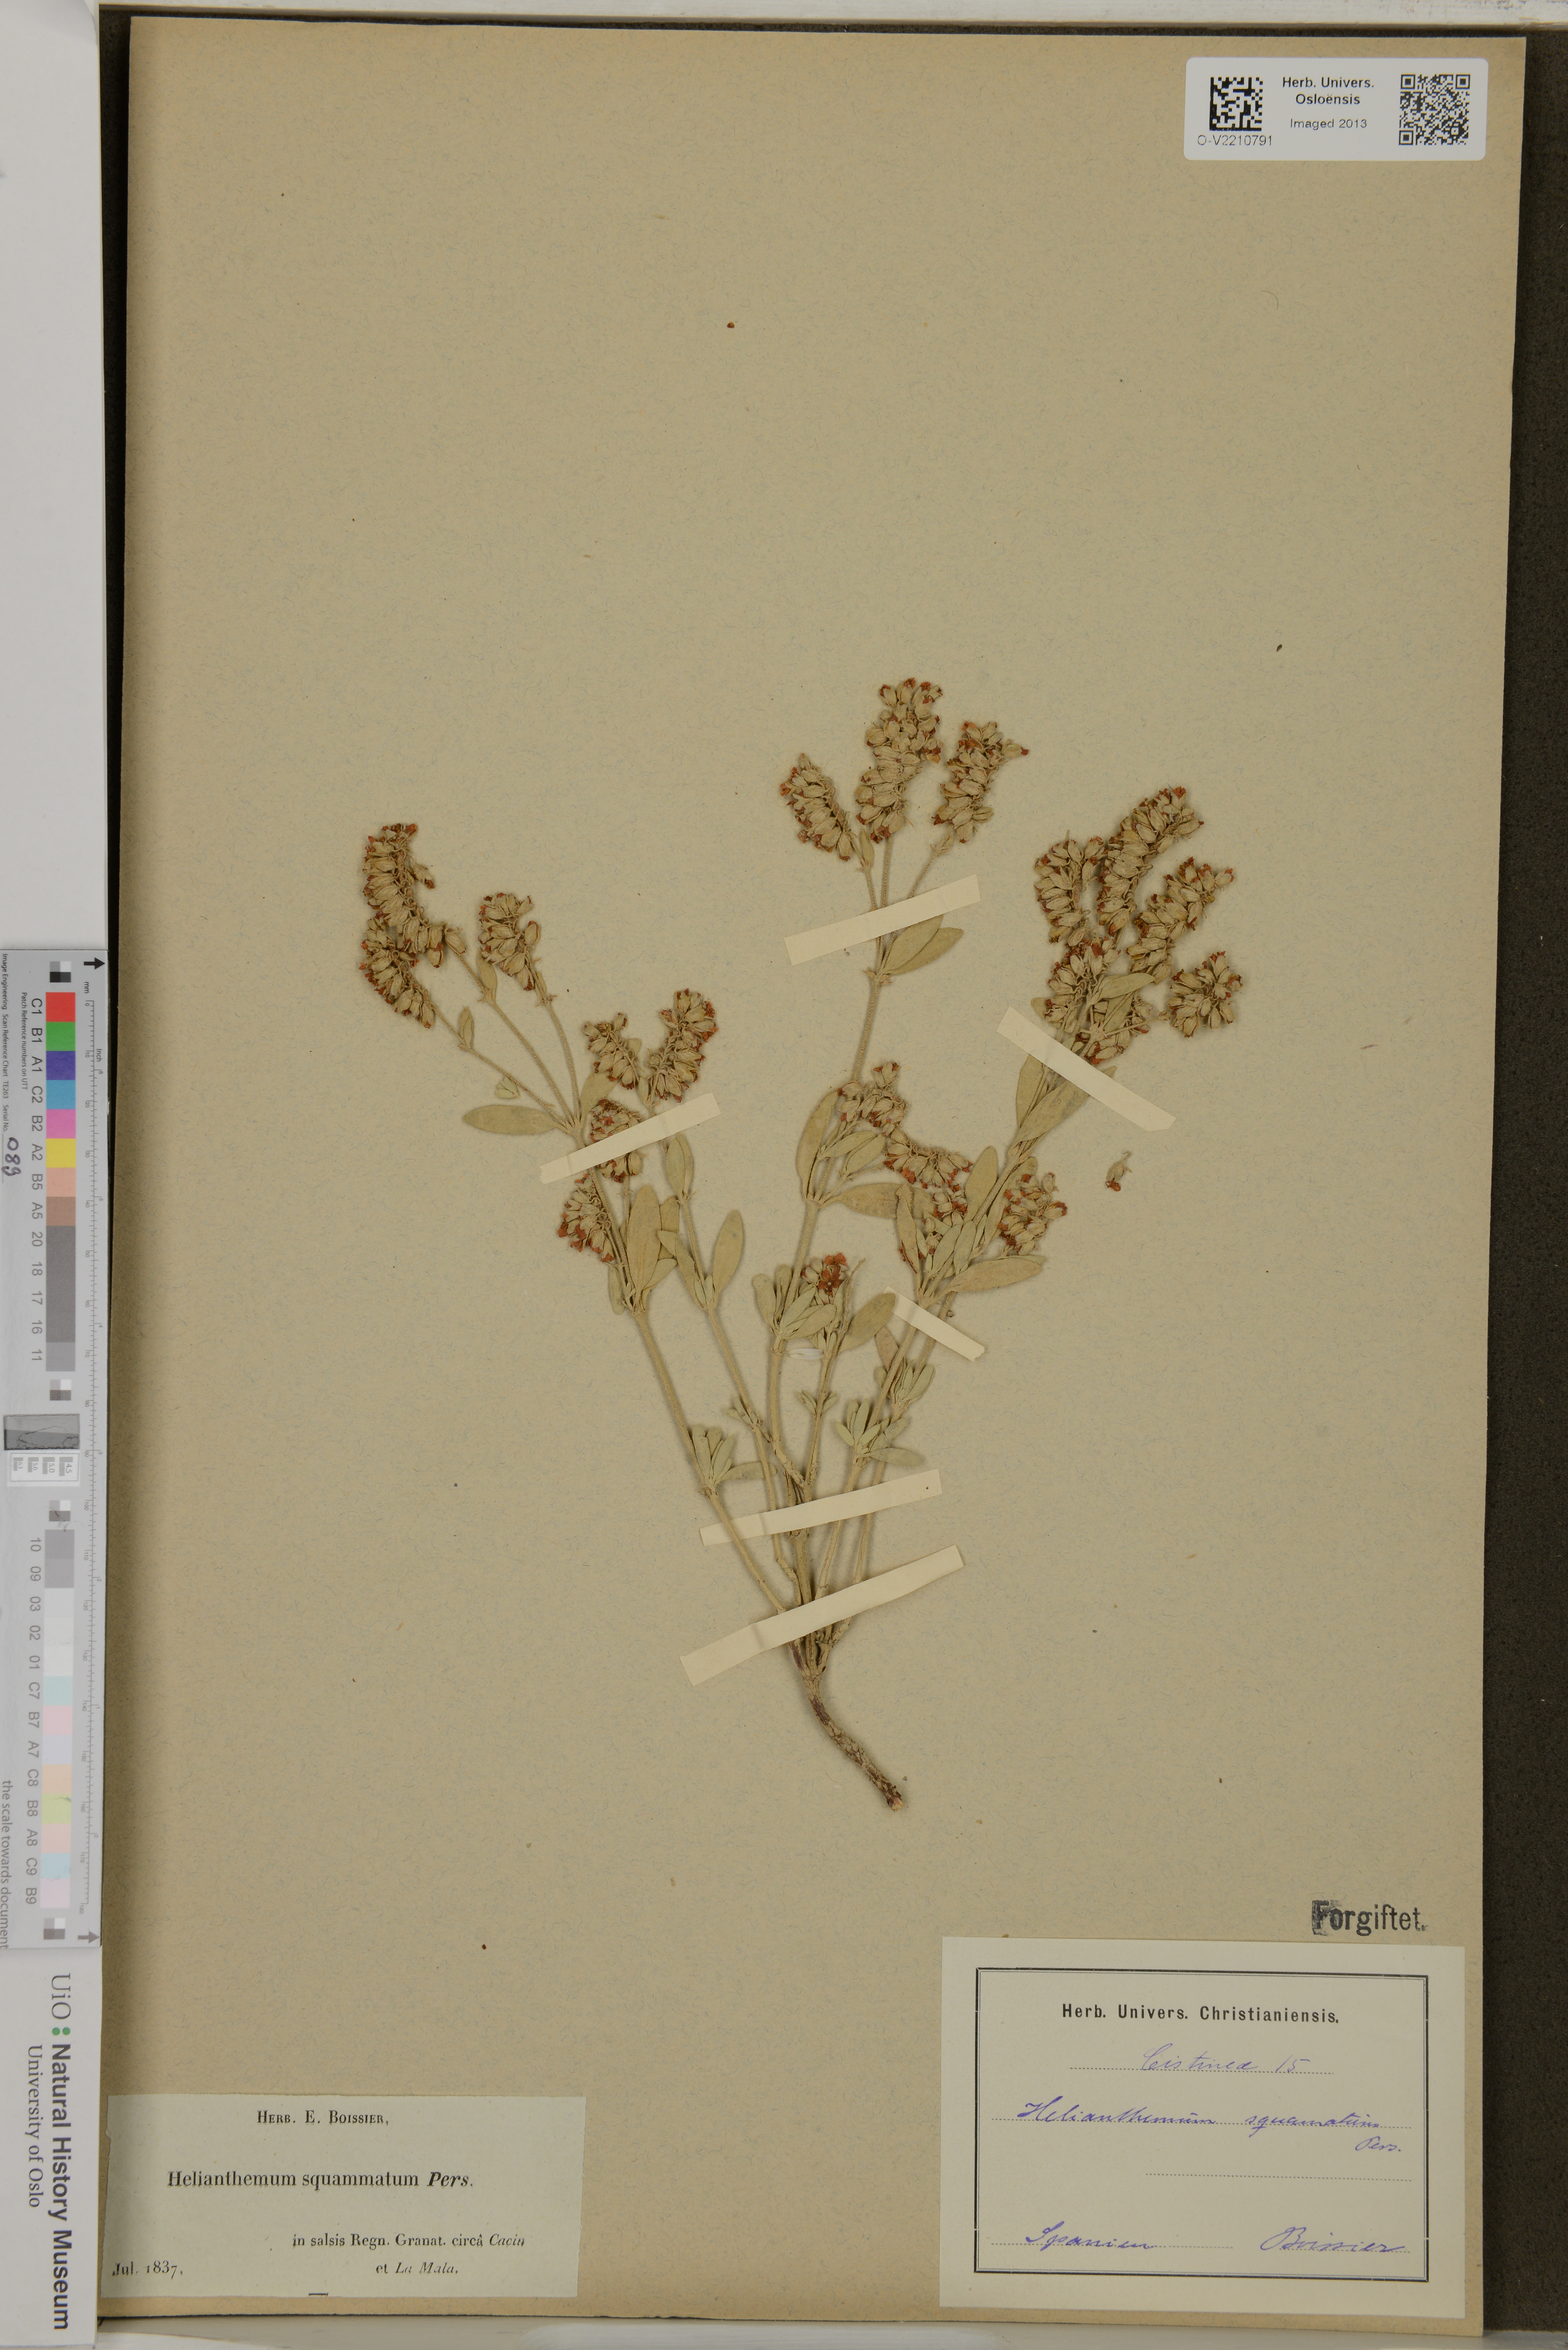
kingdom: Plantae
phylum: Tracheophyta
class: Magnoliopsida
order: Malvales
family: Cistaceae
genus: Helianthemum
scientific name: Helianthemum squamatum
